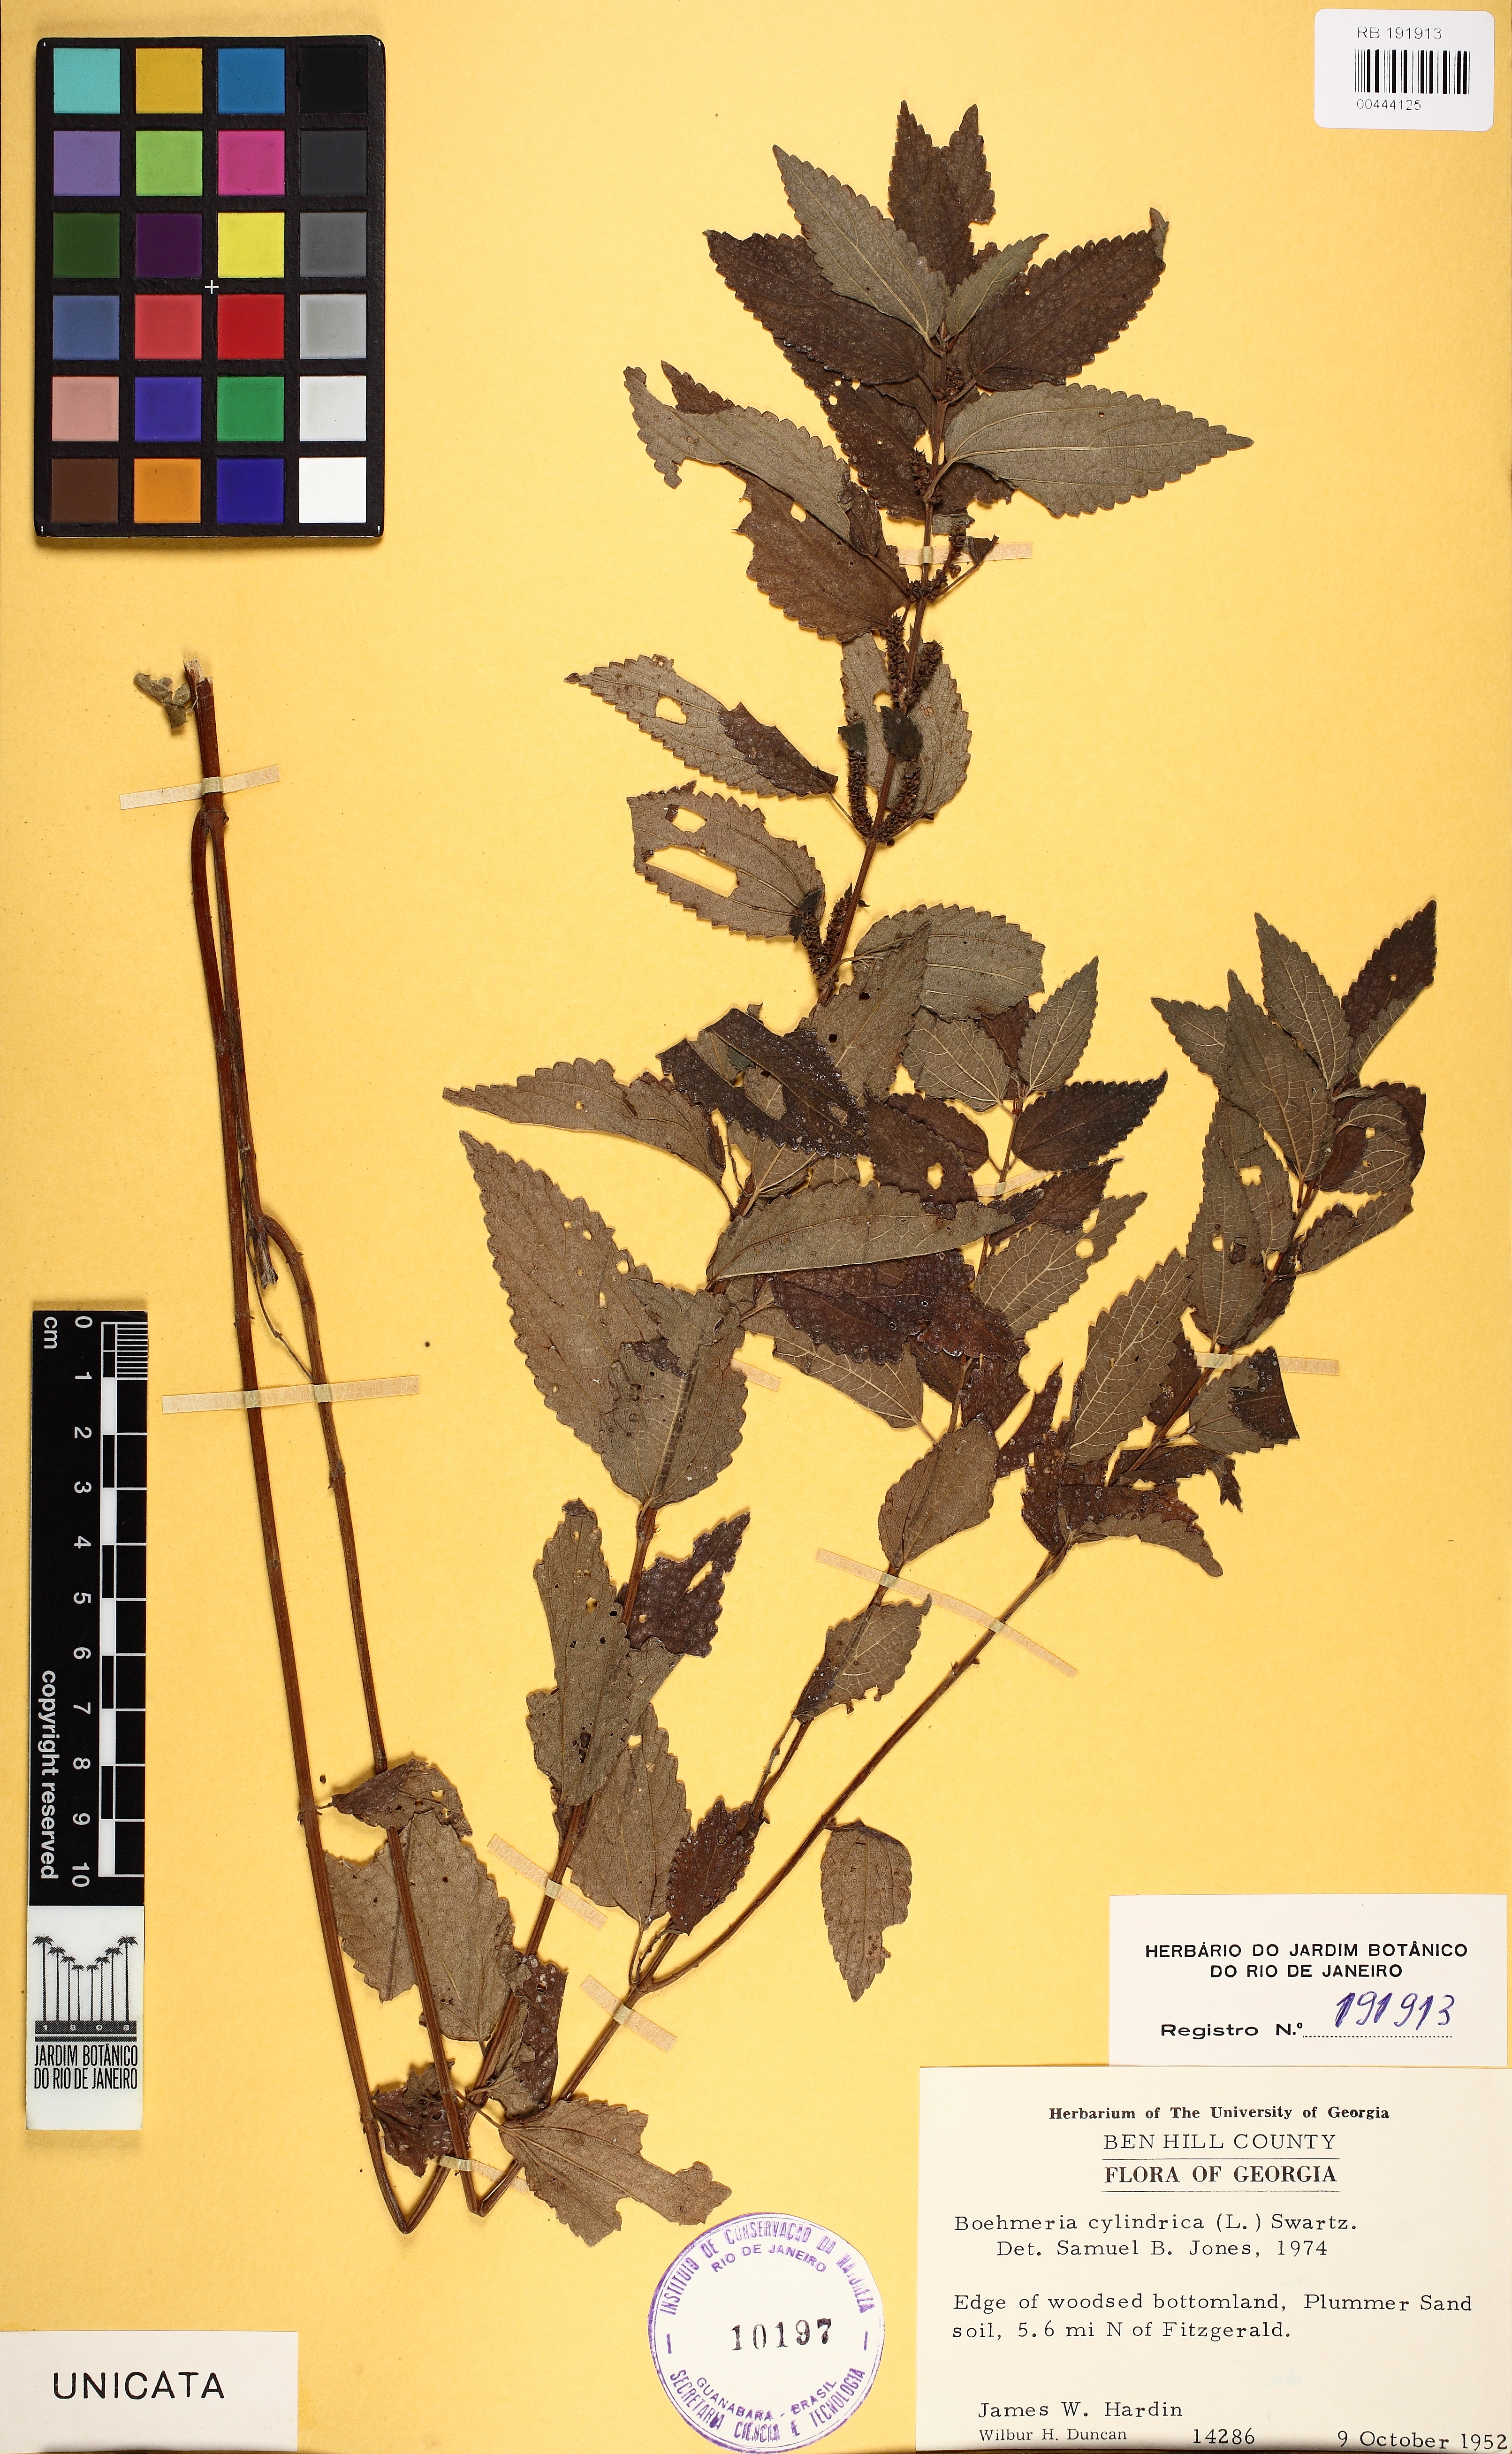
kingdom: Plantae
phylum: Tracheophyta
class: Magnoliopsida
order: Rosales
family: Urticaceae
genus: Boehmeria
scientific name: Boehmeria cylindrica
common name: Bog-hemp
